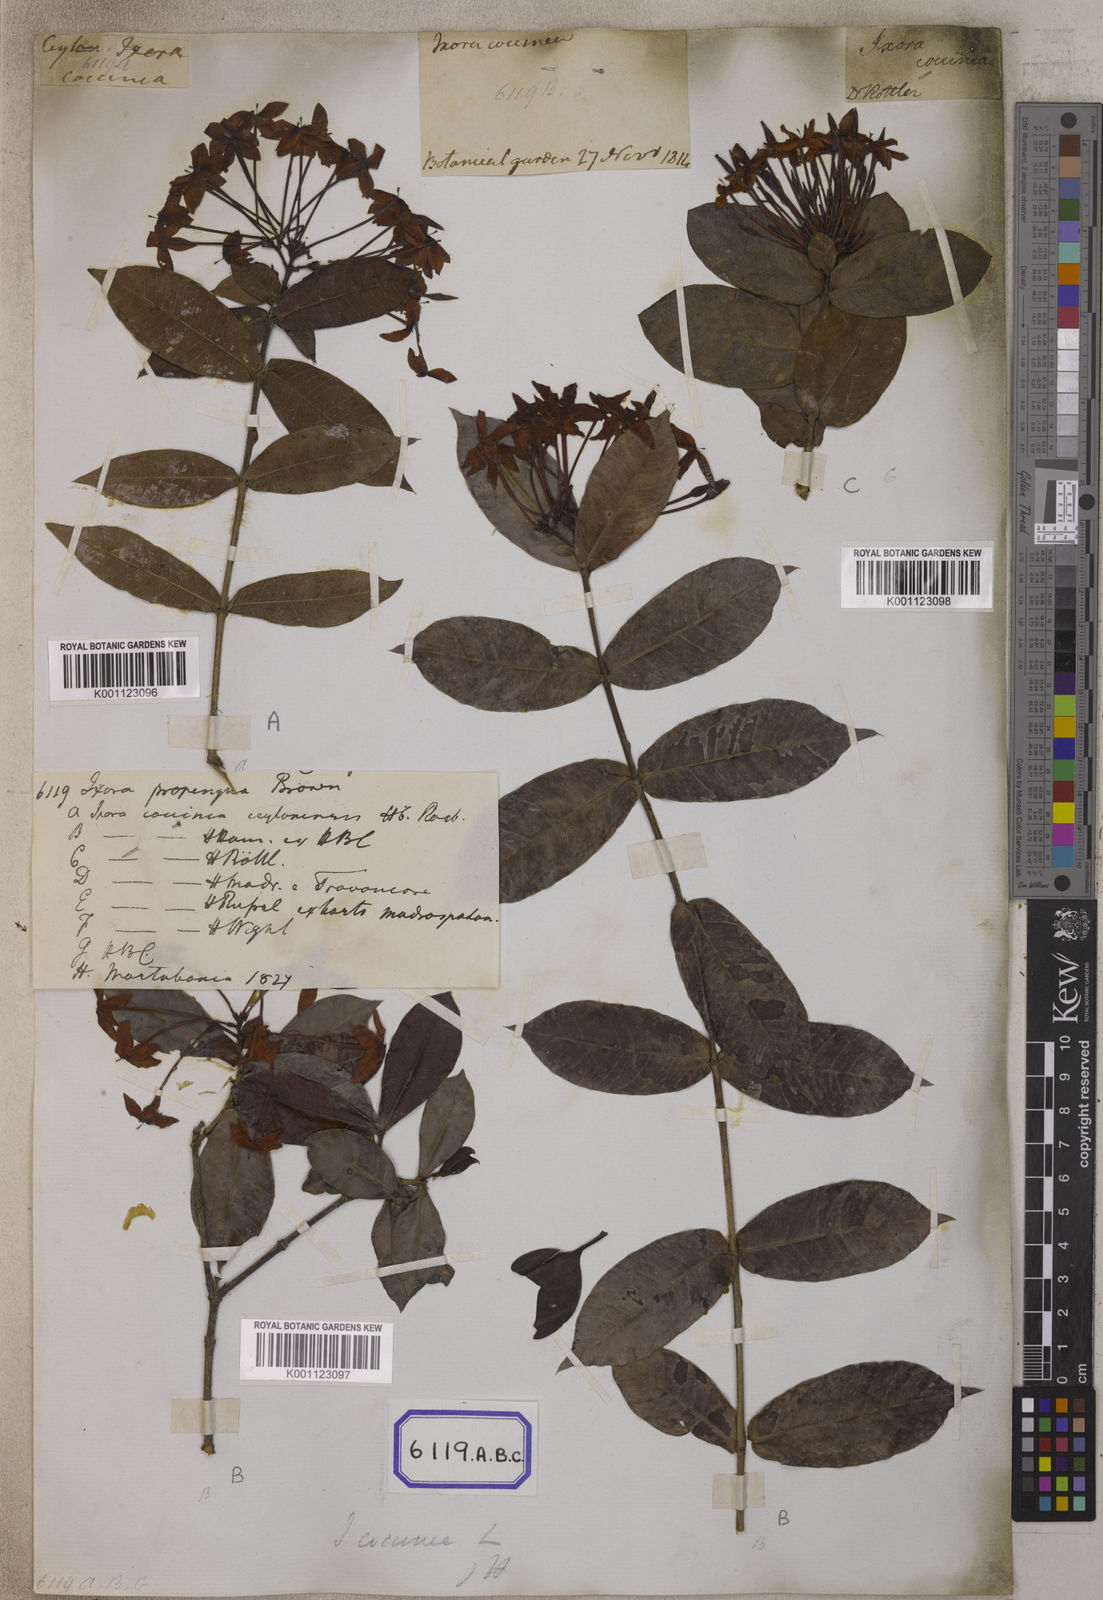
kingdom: Plantae
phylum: Tracheophyta
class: Magnoliopsida
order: Gentianales
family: Rubiaceae
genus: Ixora
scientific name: Ixora
